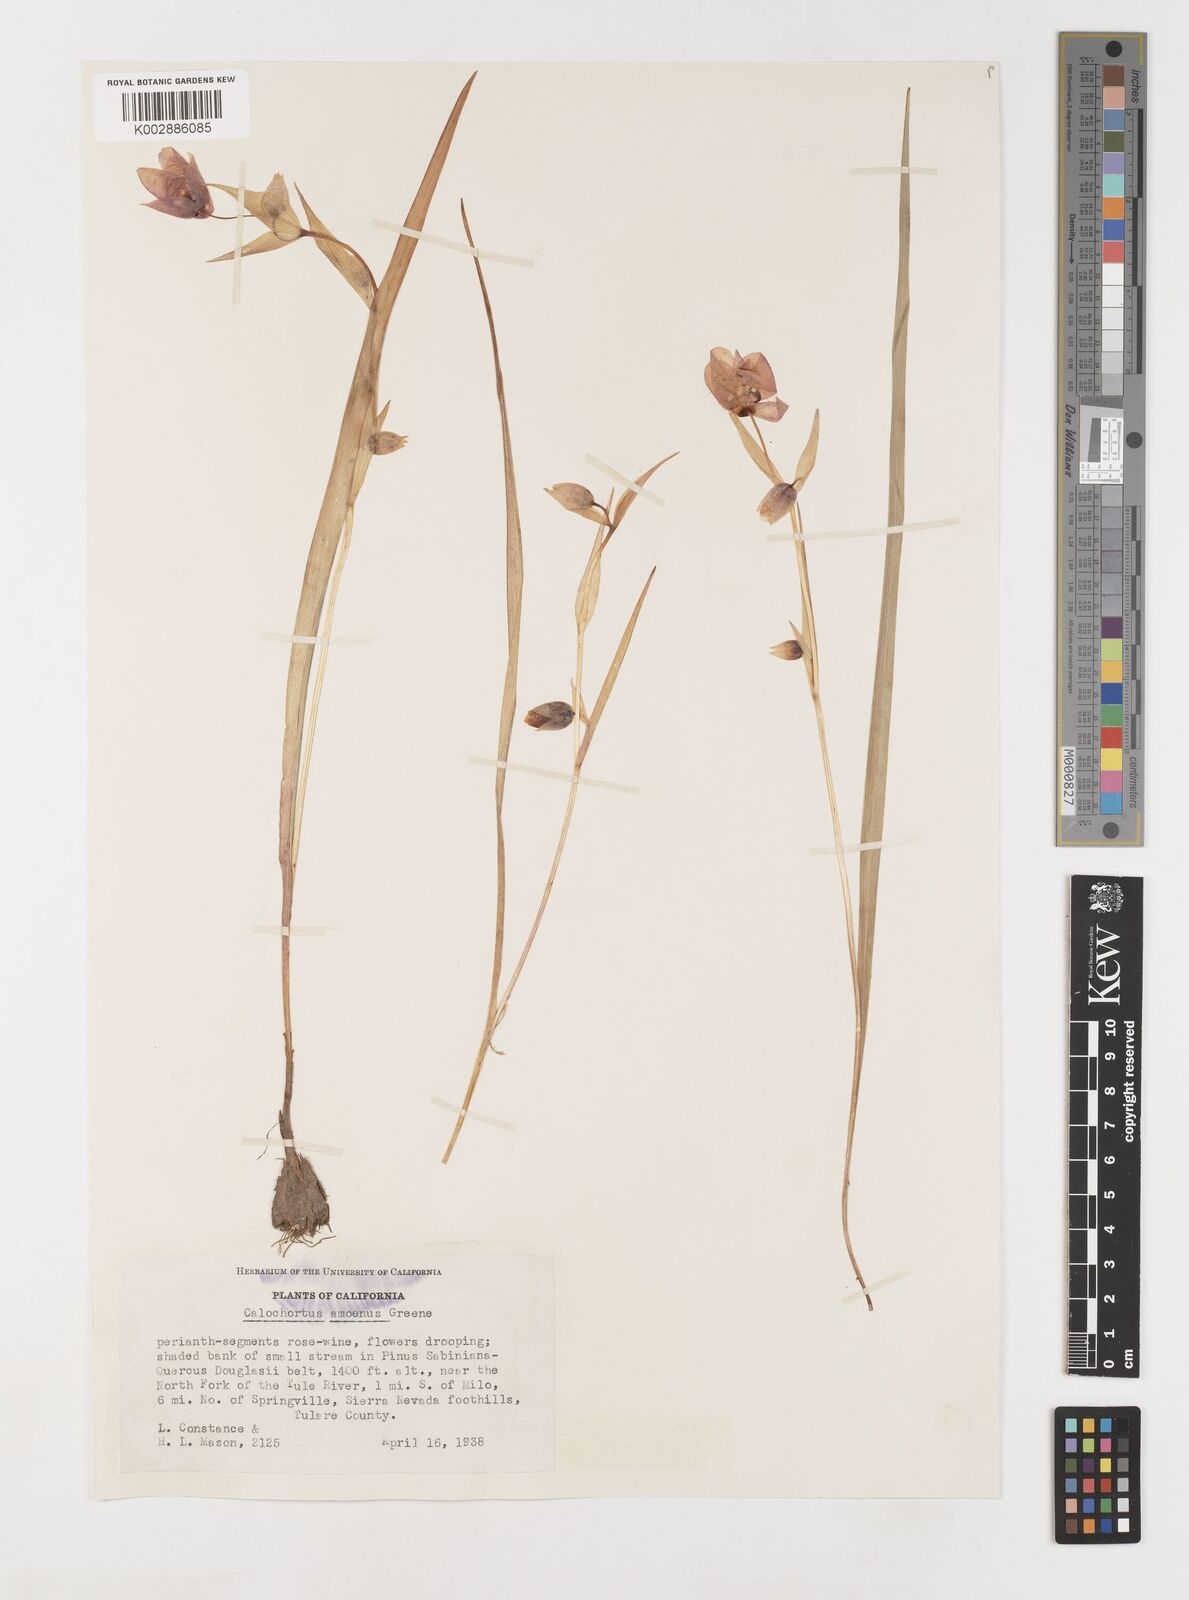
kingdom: Plantae
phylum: Tracheophyta
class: Liliopsida
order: Liliales
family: Liliaceae
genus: Calochortus
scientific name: Calochortus amoenus
